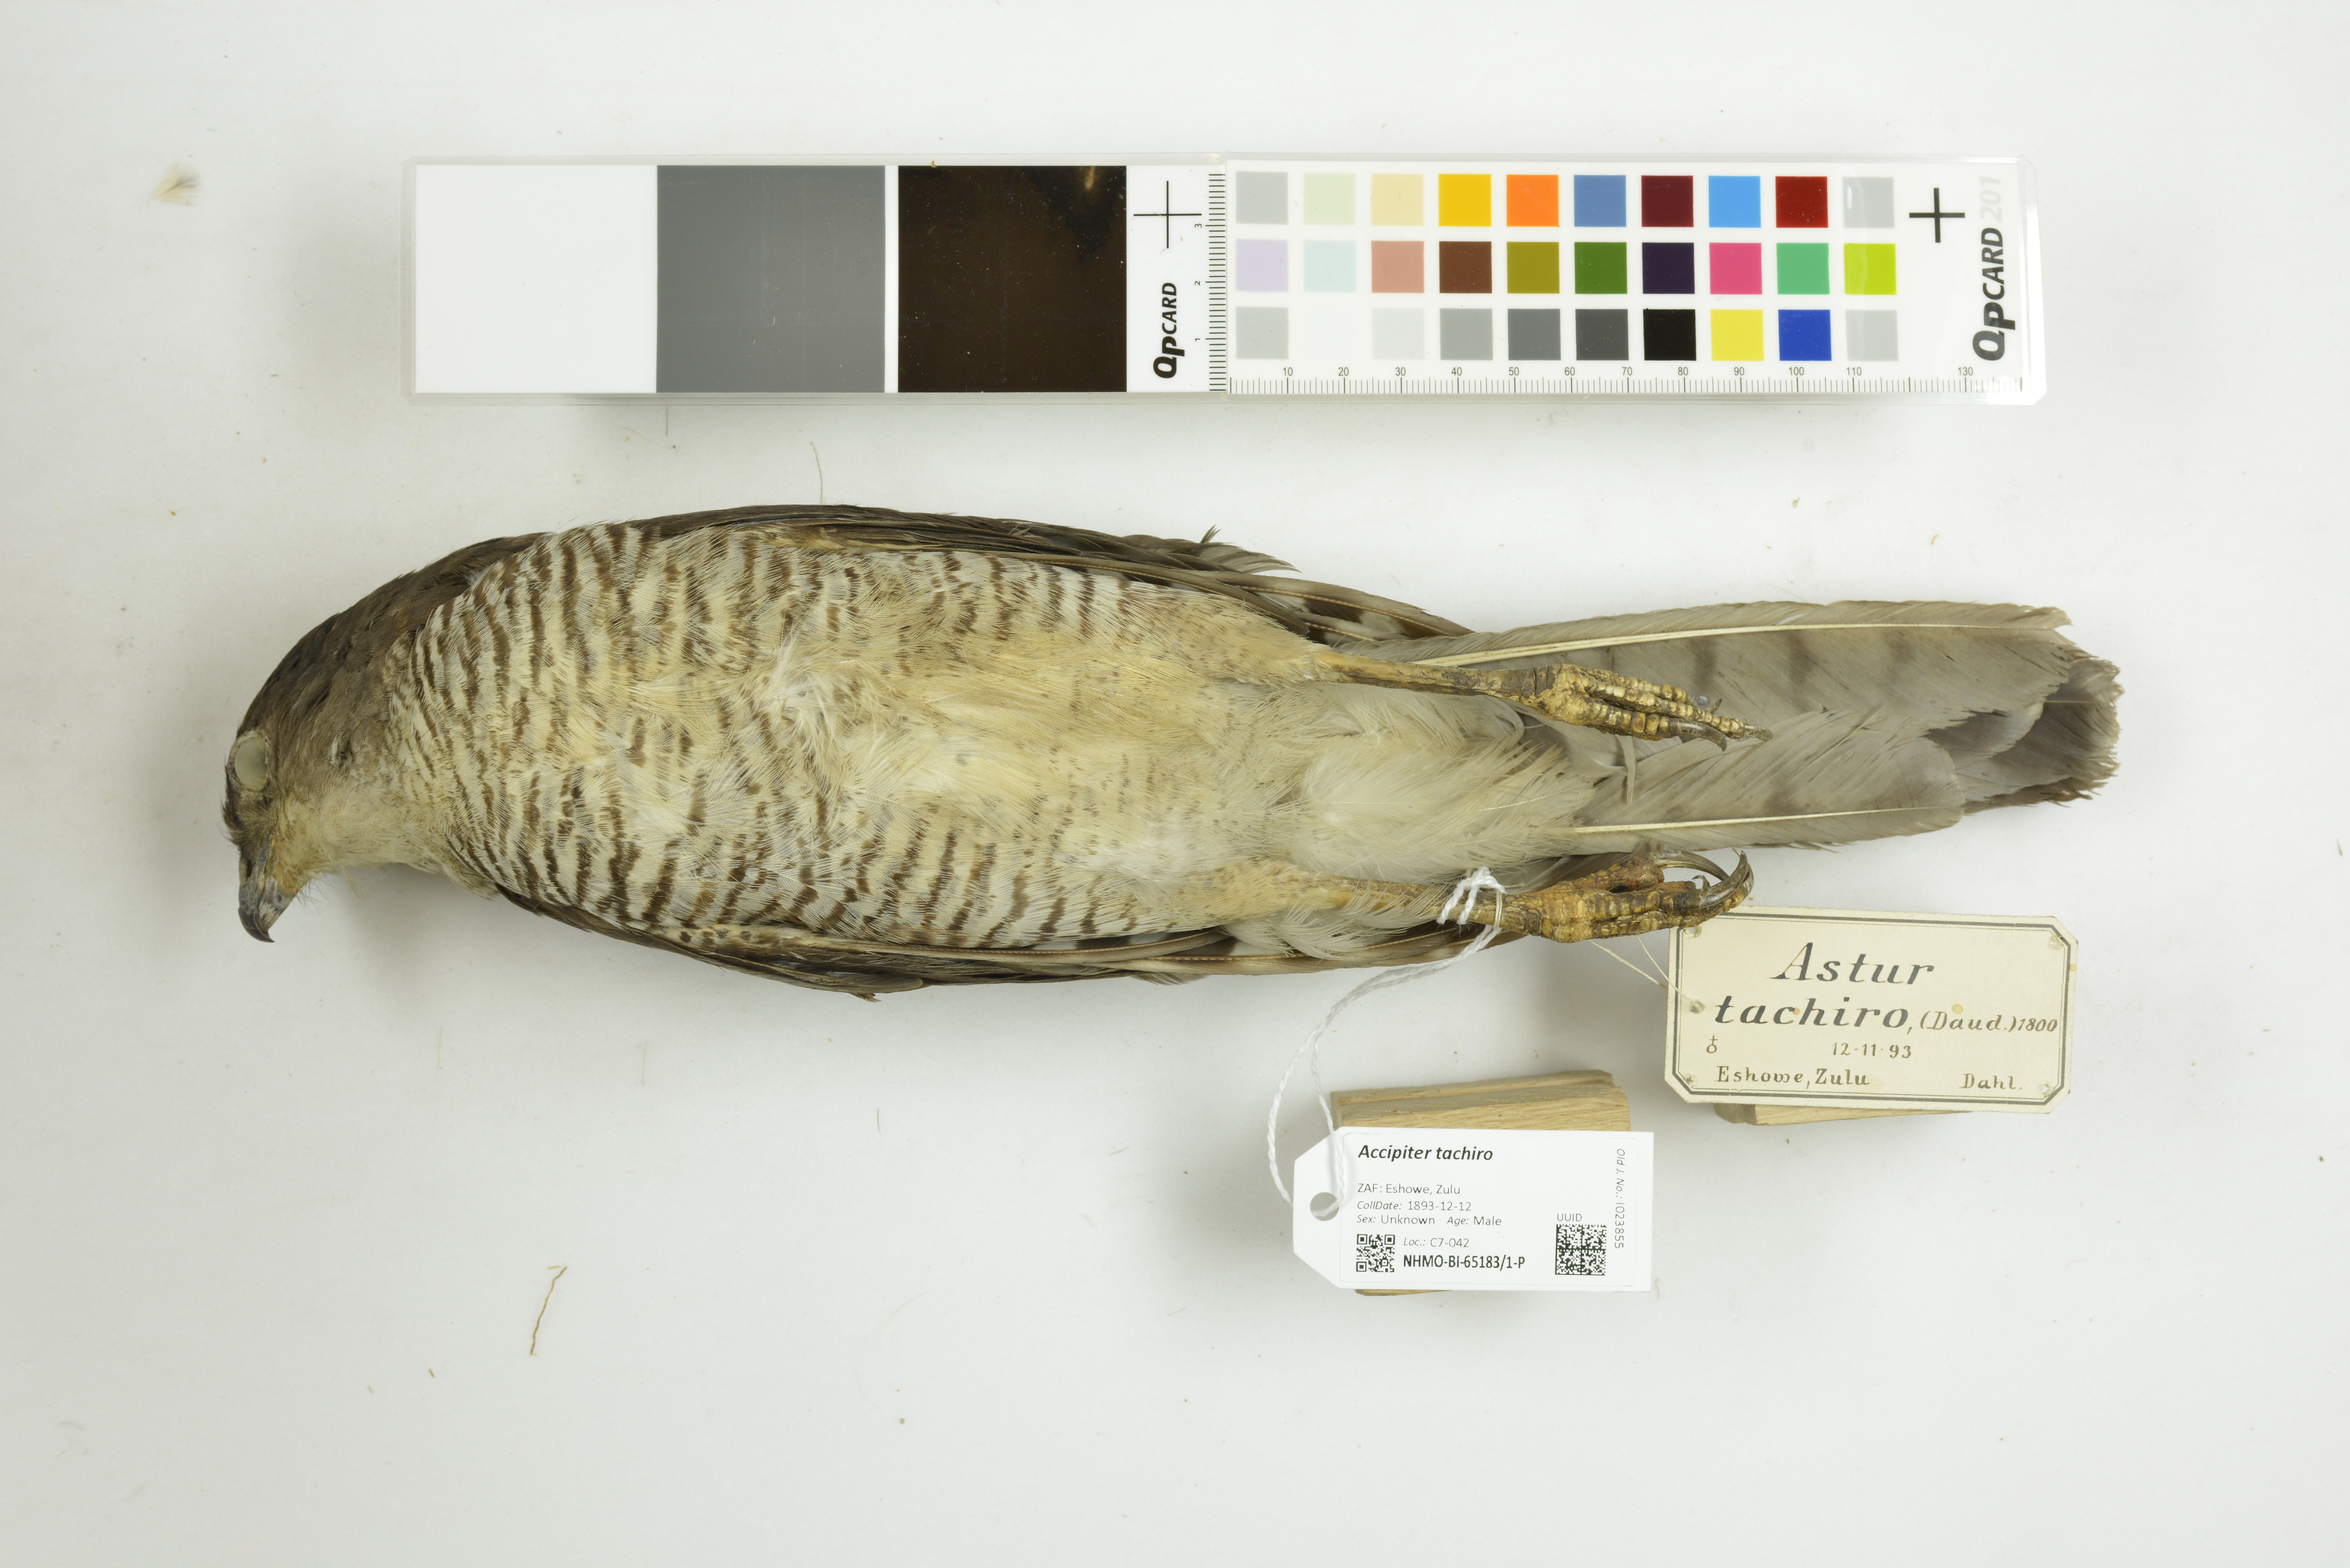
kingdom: Animalia
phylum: Chordata
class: Aves
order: Accipitriformes
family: Accipitridae
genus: Accipiter
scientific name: Accipiter tachiro
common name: African goshawk
